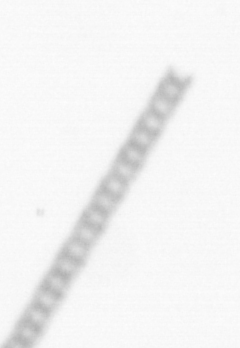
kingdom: Chromista
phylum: Ochrophyta
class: Bacillariophyceae
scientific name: Bacillariophyceae
